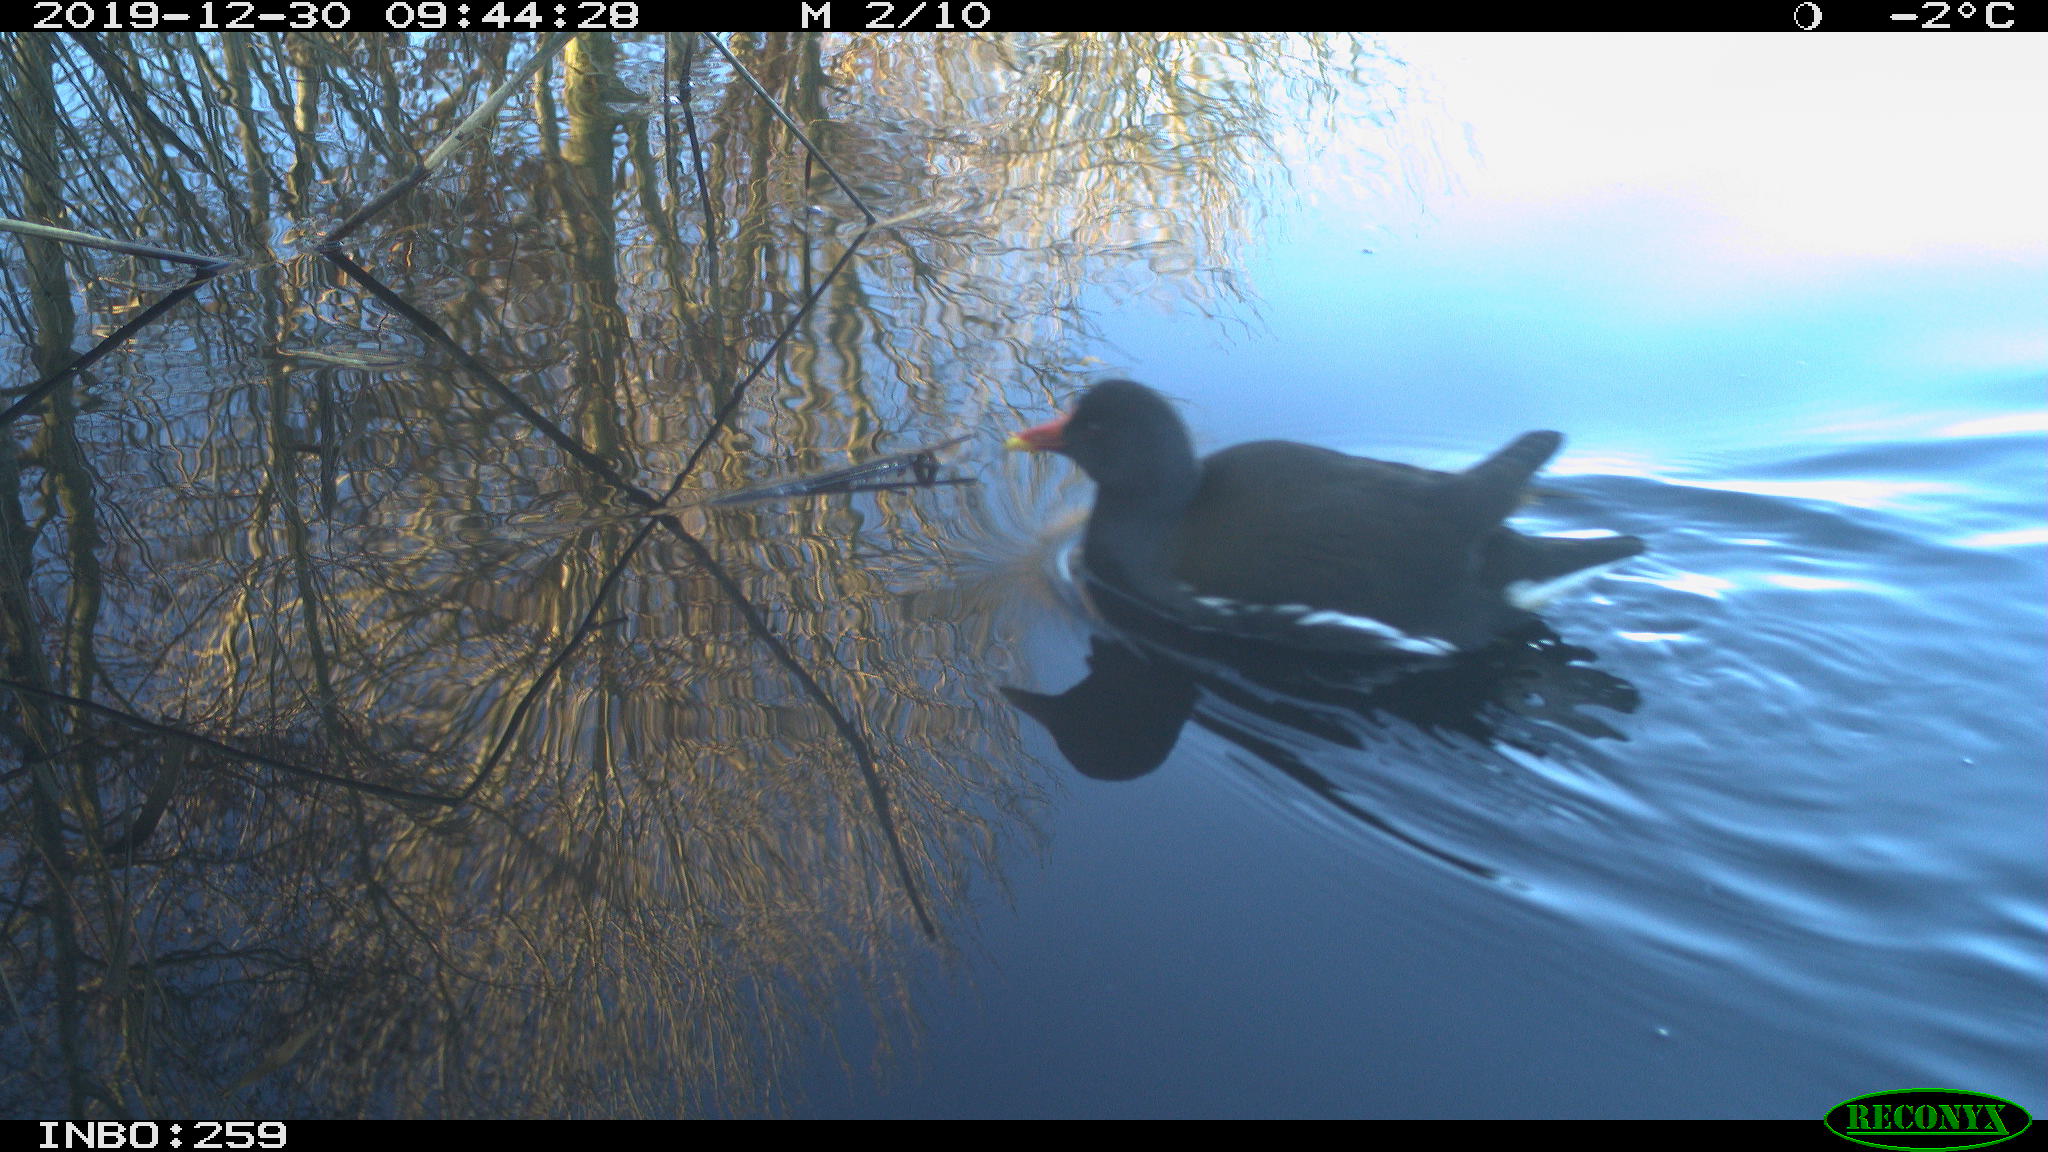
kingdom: Animalia
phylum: Chordata
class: Aves
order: Gruiformes
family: Rallidae
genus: Gallinula
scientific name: Gallinula chloropus
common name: Common moorhen
